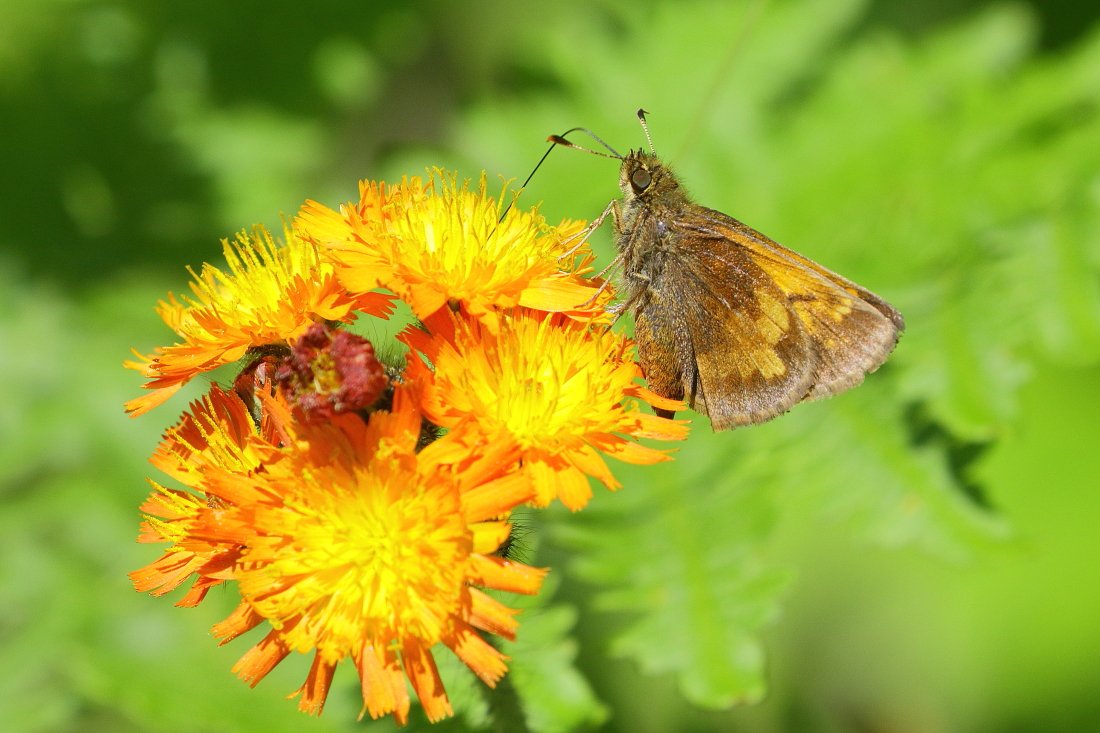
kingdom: Animalia
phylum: Arthropoda
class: Insecta
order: Lepidoptera
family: Hesperiidae
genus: Lon
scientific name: Lon hobomok
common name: Hobomok Skipper
